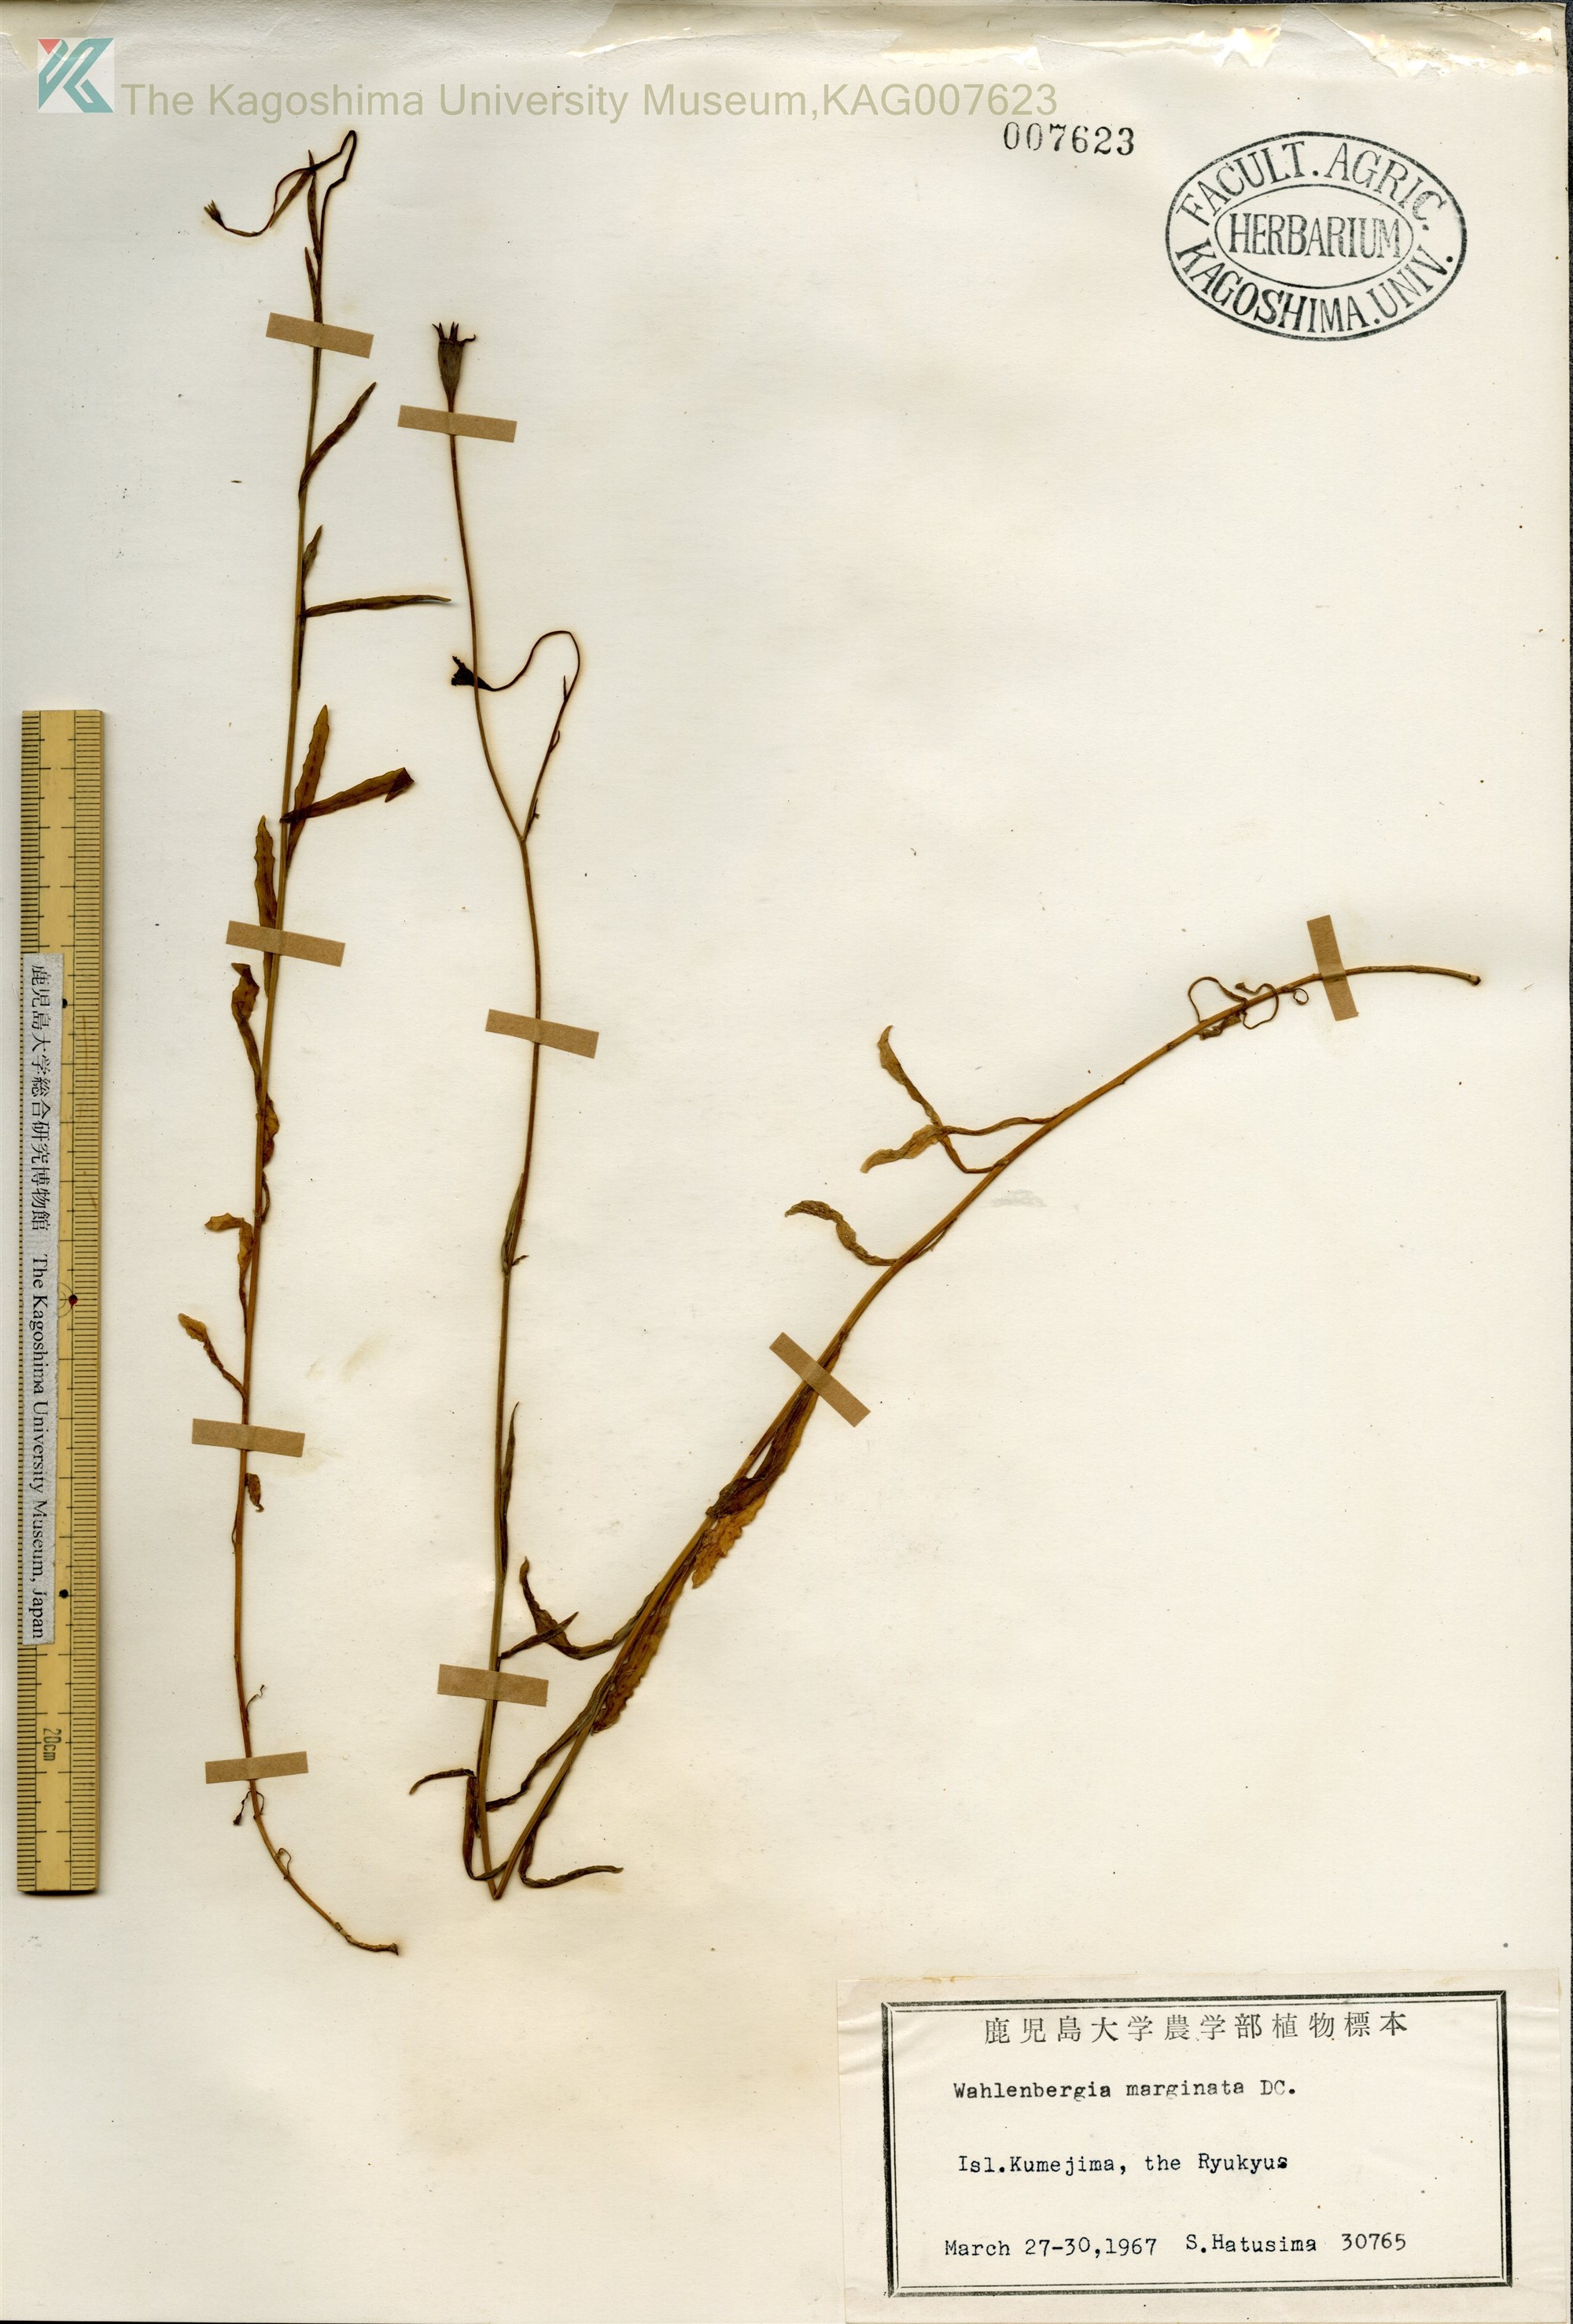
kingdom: Plantae
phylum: Tracheophyta
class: Magnoliopsida
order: Asterales
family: Campanulaceae
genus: Wahlenbergia
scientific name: Wahlenbergia marginata
